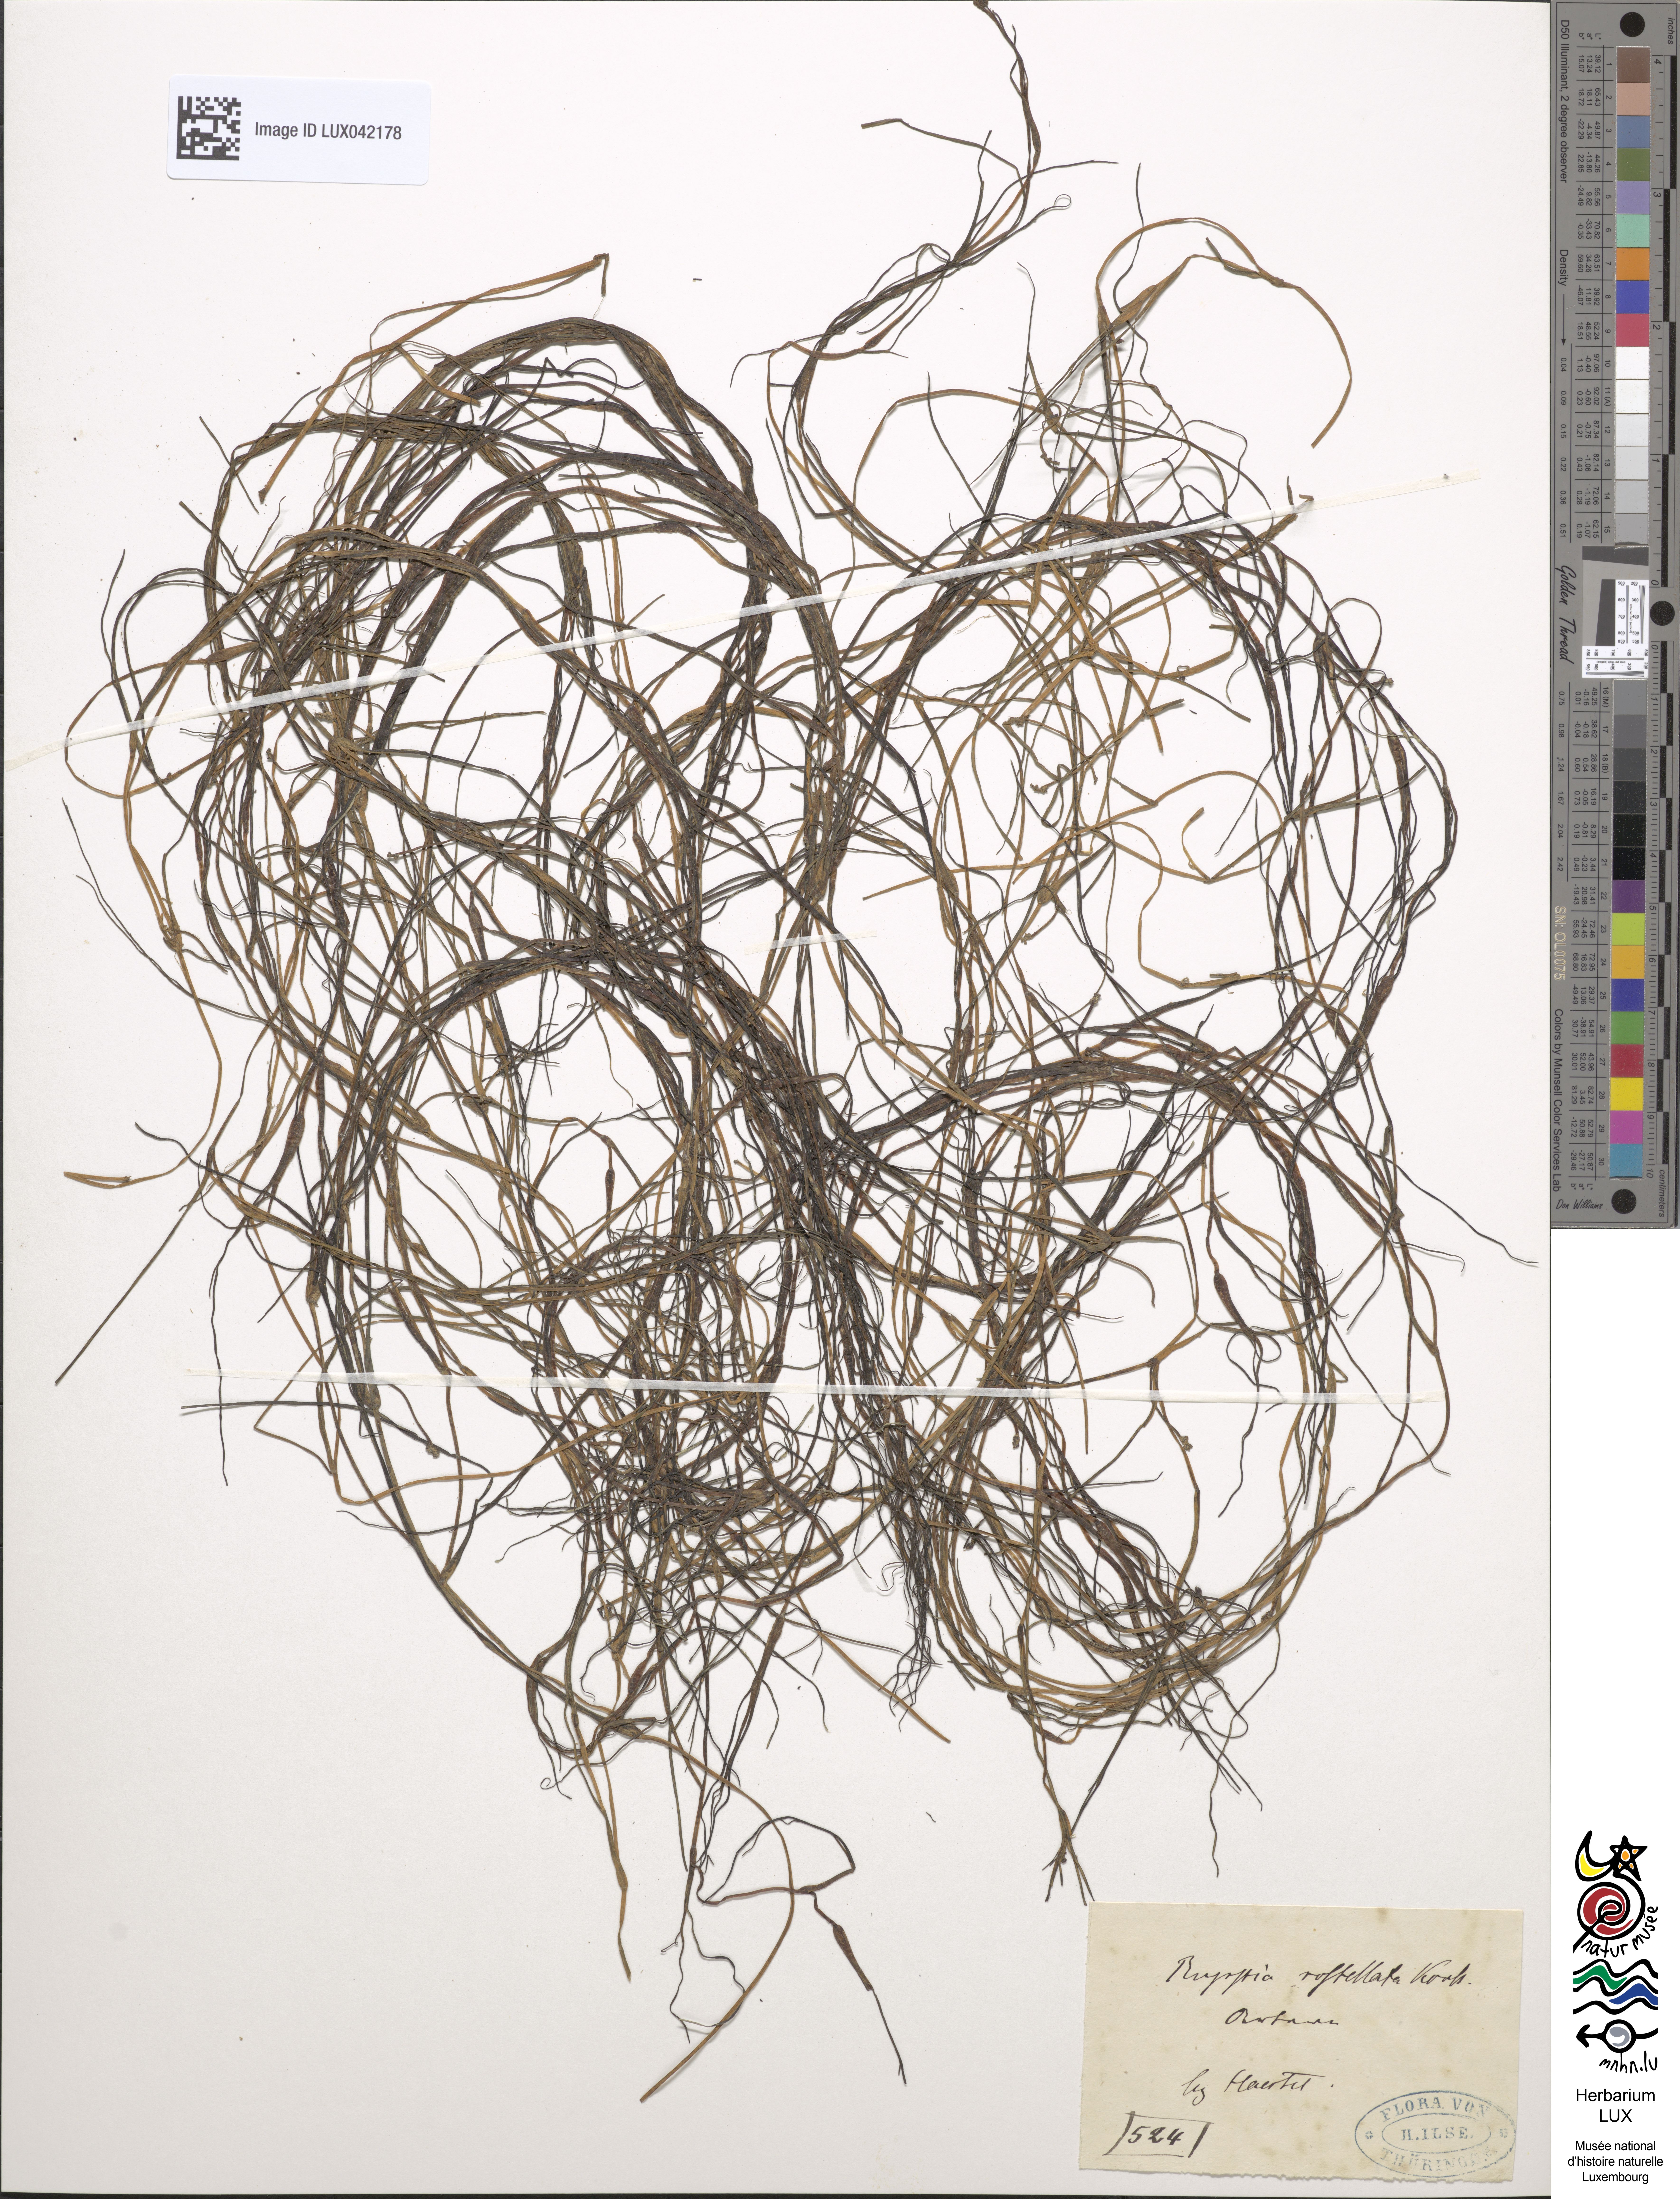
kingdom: Plantae
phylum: Tracheophyta
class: Liliopsida
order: Alismatales
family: Ruppiaceae
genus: Ruppia
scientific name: Ruppia maritima
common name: Beaked tasselweed
